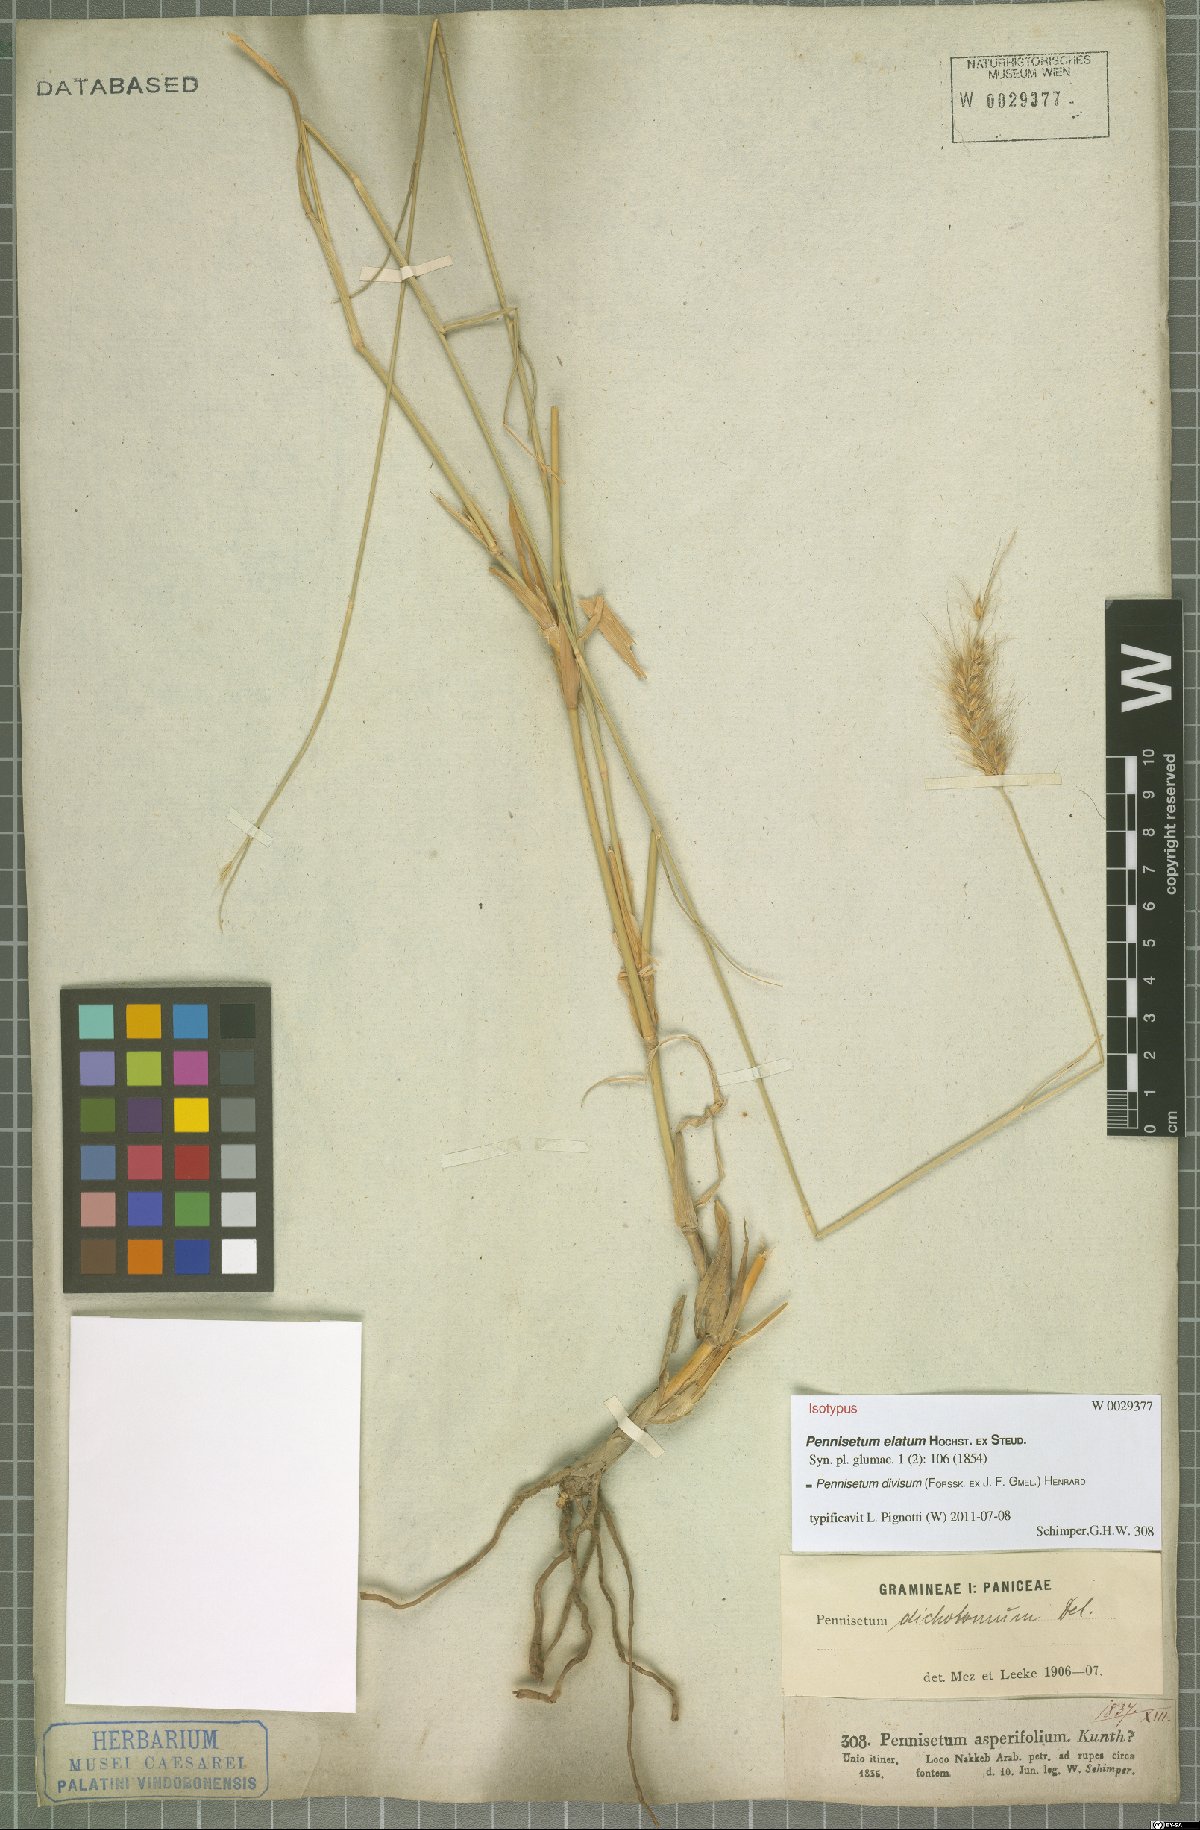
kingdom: Plantae
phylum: Tracheophyta
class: Liliopsida
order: Poales
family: Poaceae
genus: Cenchrus
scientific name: Cenchrus divisus
